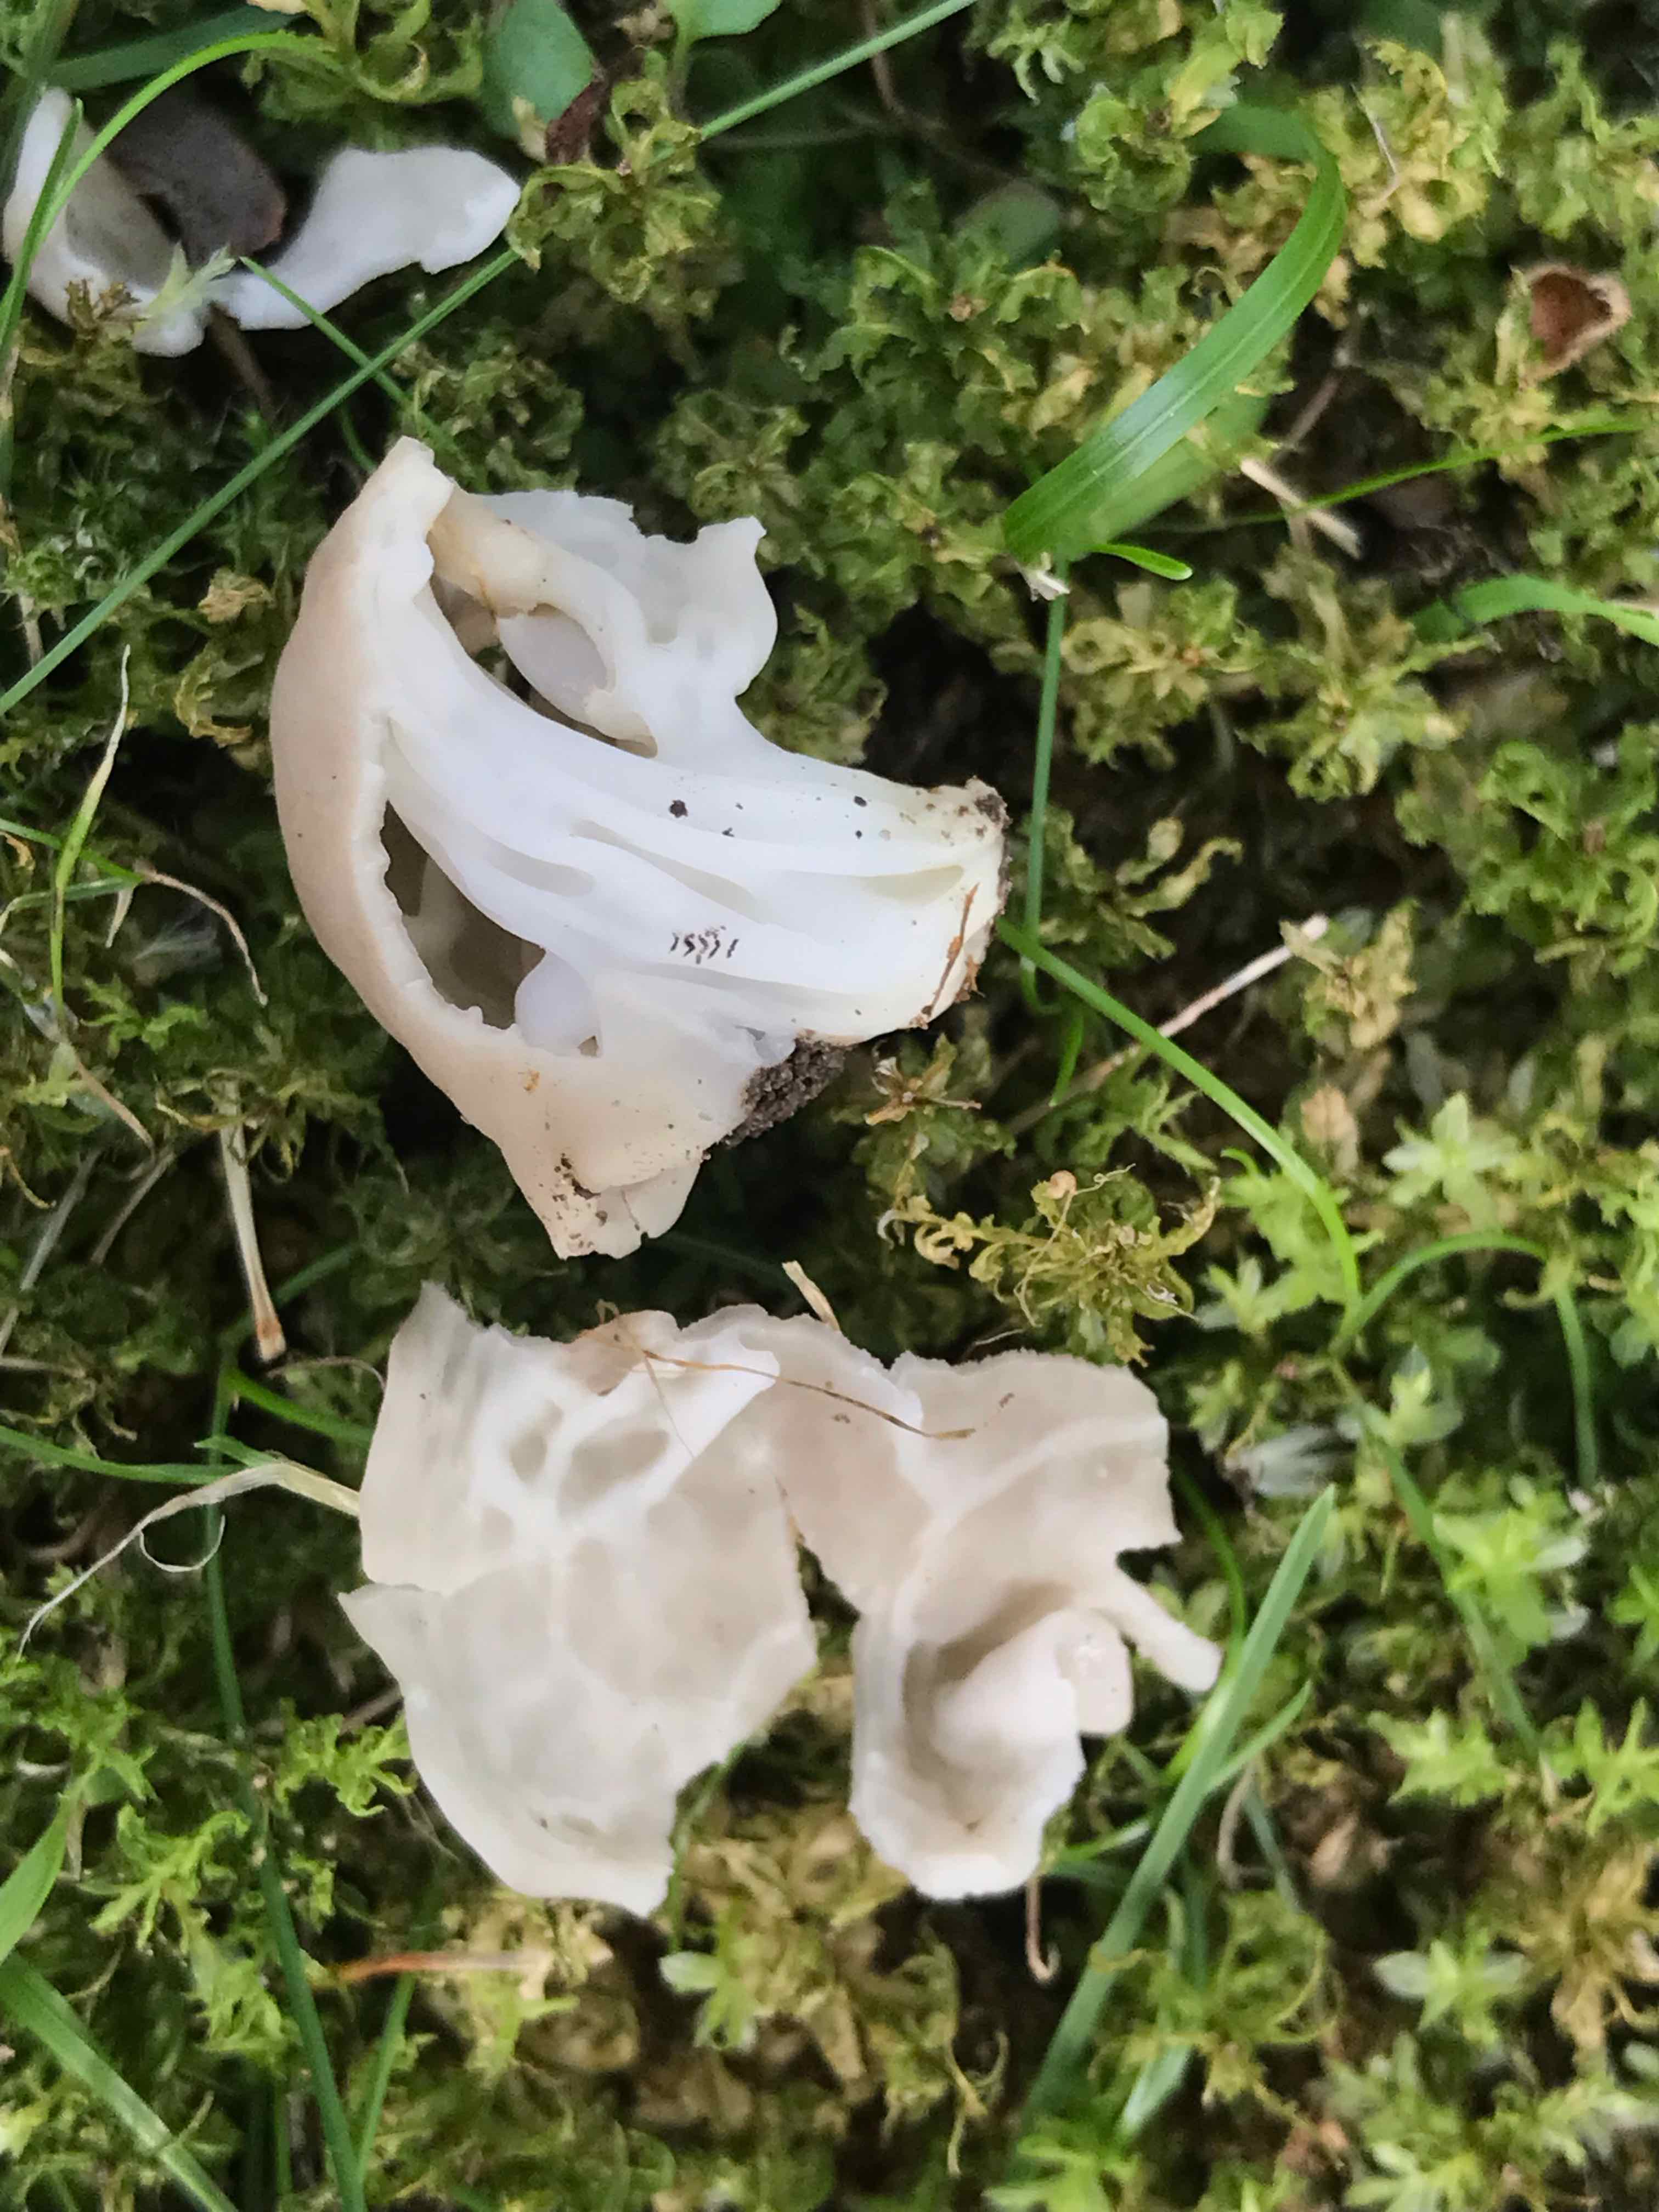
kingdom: Fungi
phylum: Ascomycota
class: Pezizomycetes
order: Pezizales
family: Helvellaceae
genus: Helvella
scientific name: Helvella crispa
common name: kruset foldhat
